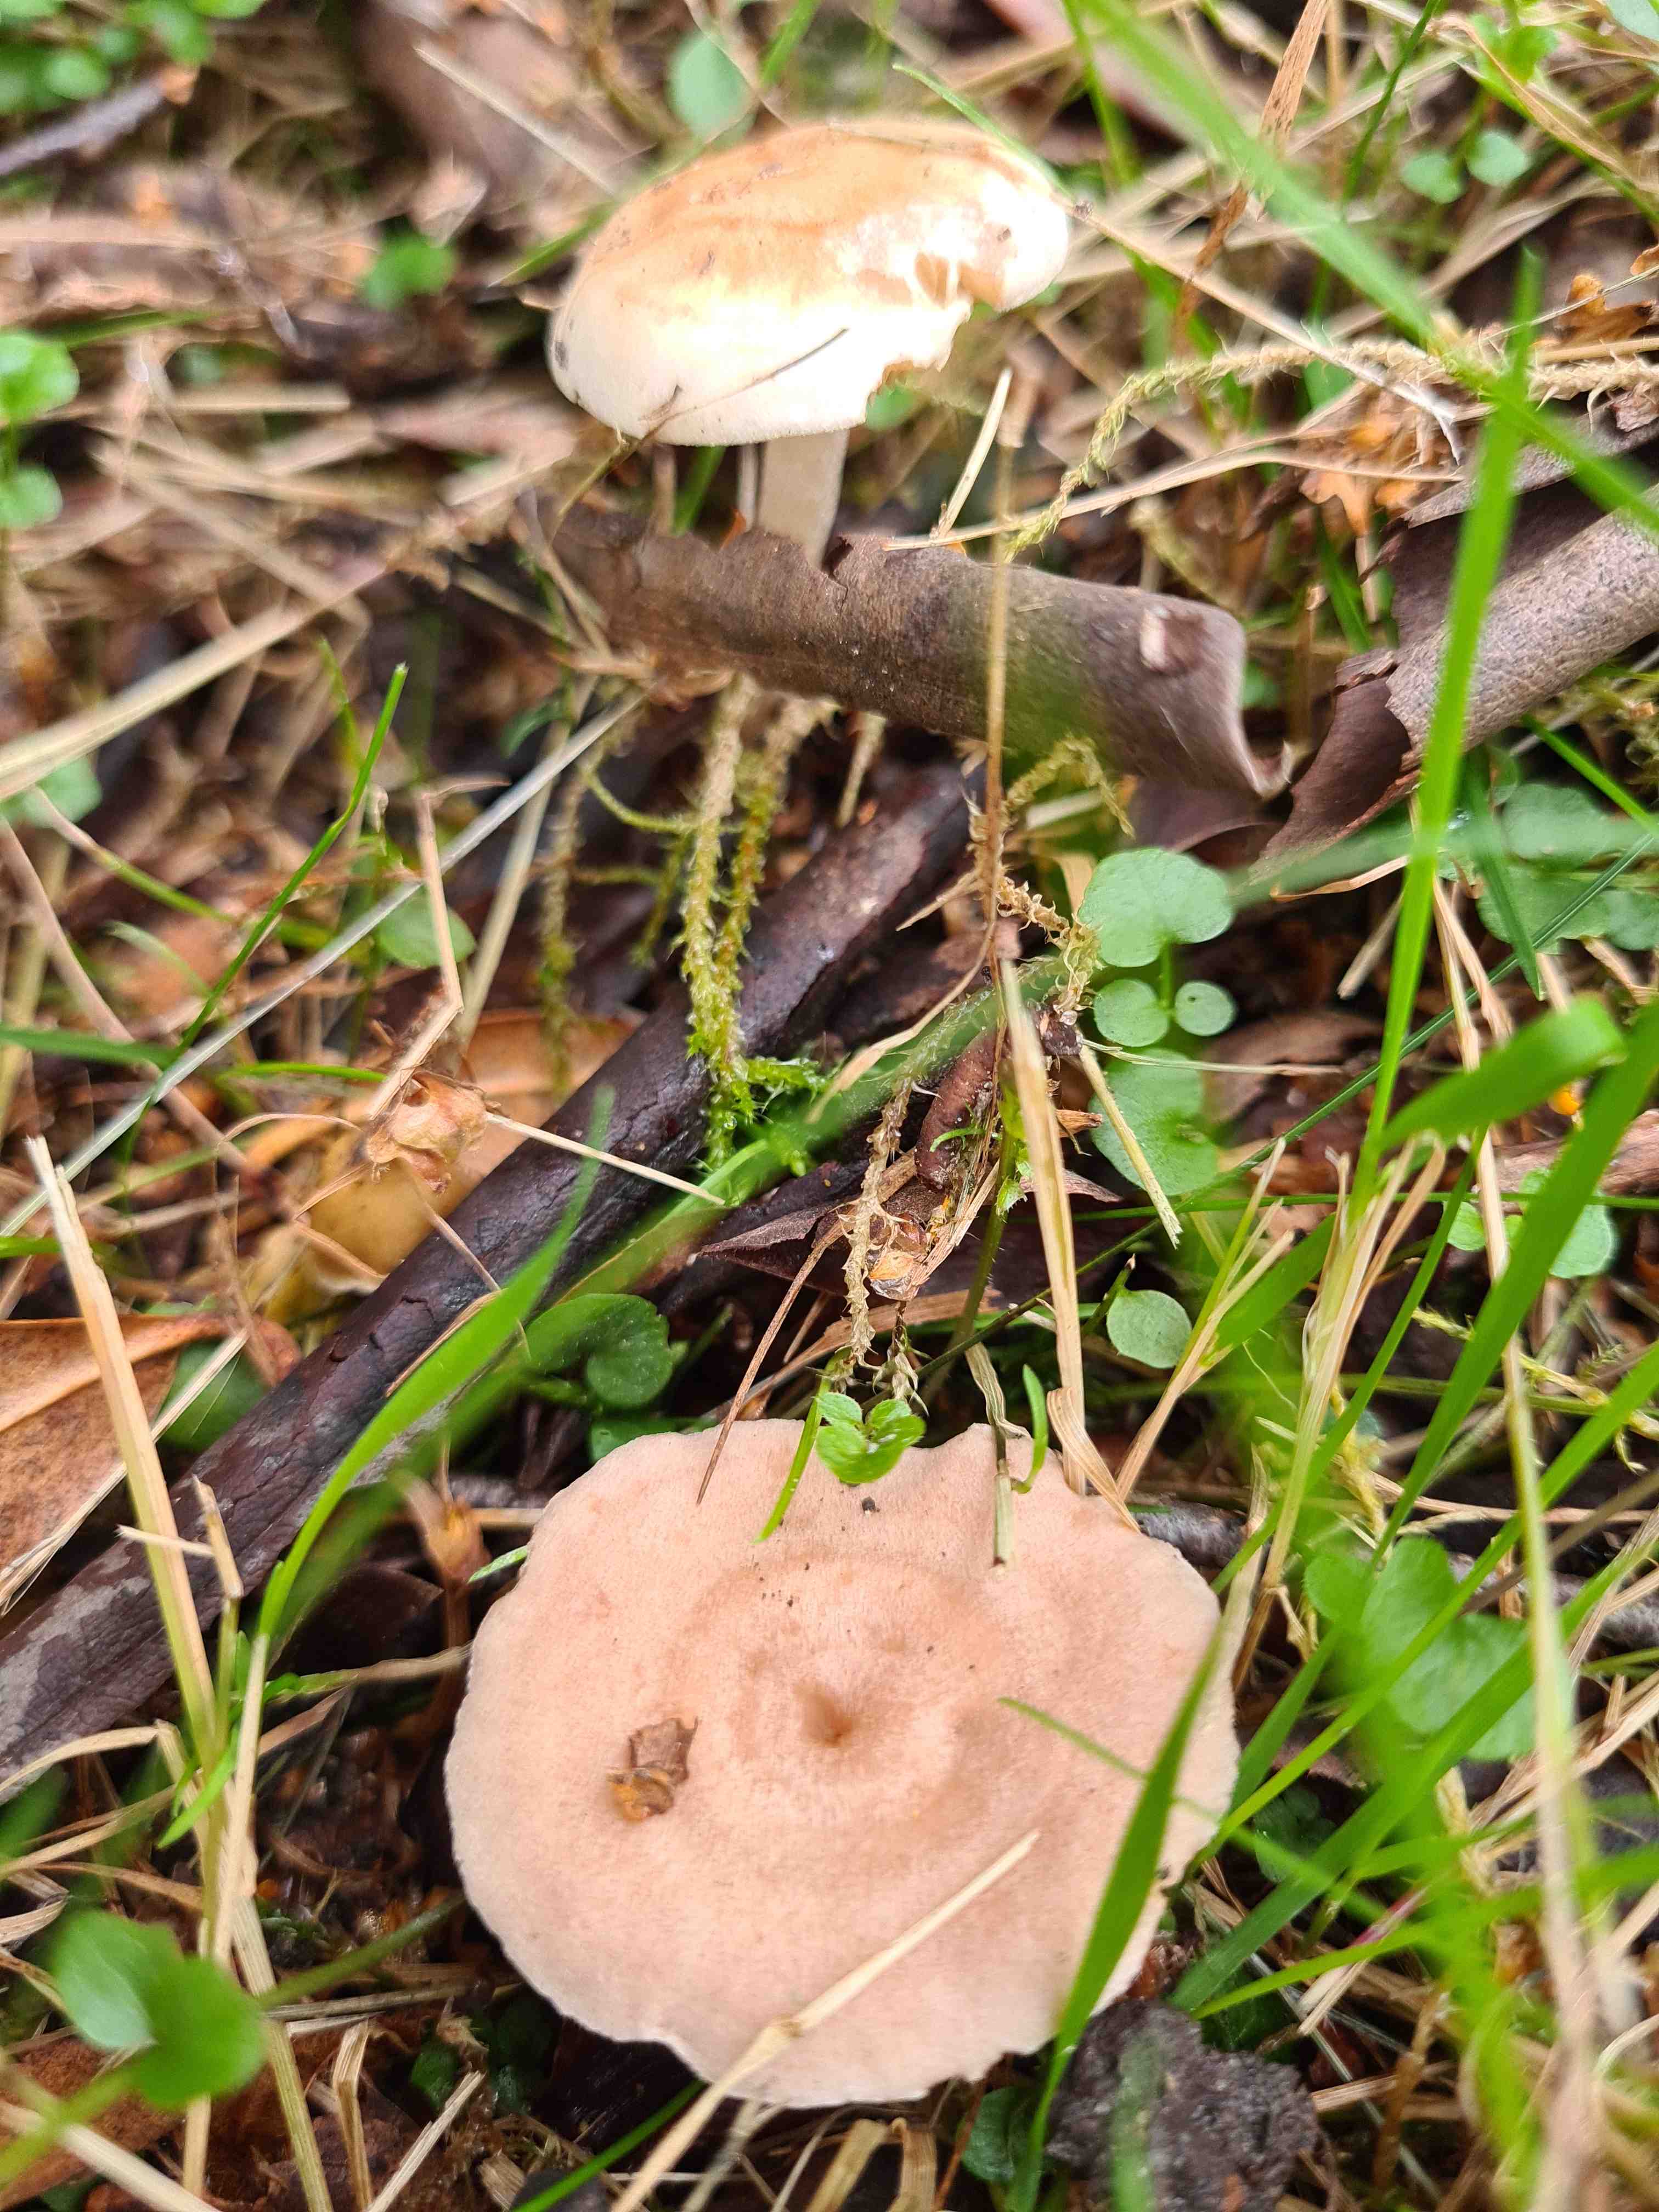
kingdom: Fungi
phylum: Basidiomycota
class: Agaricomycetes
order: Agaricales
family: Hymenogastraceae
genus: Hebeloma
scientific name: Hebeloma
